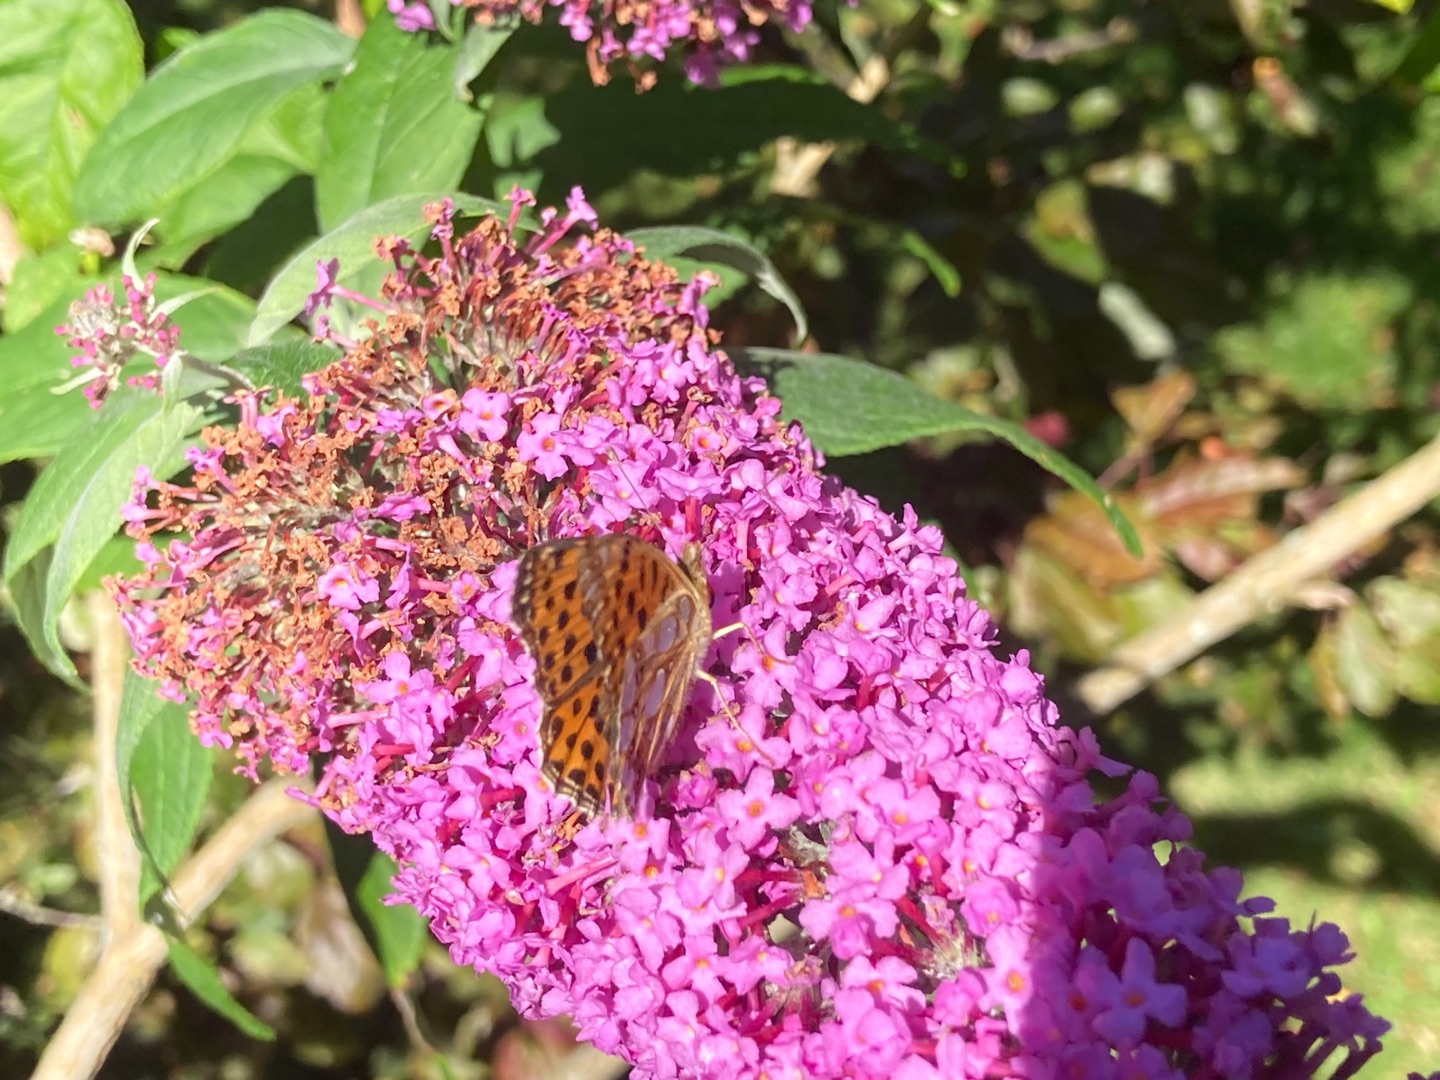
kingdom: Animalia
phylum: Arthropoda
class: Insecta
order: Lepidoptera
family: Nymphalidae
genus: Issoria
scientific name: Issoria lathonia
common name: Storplettet perlemorsommerfugl
